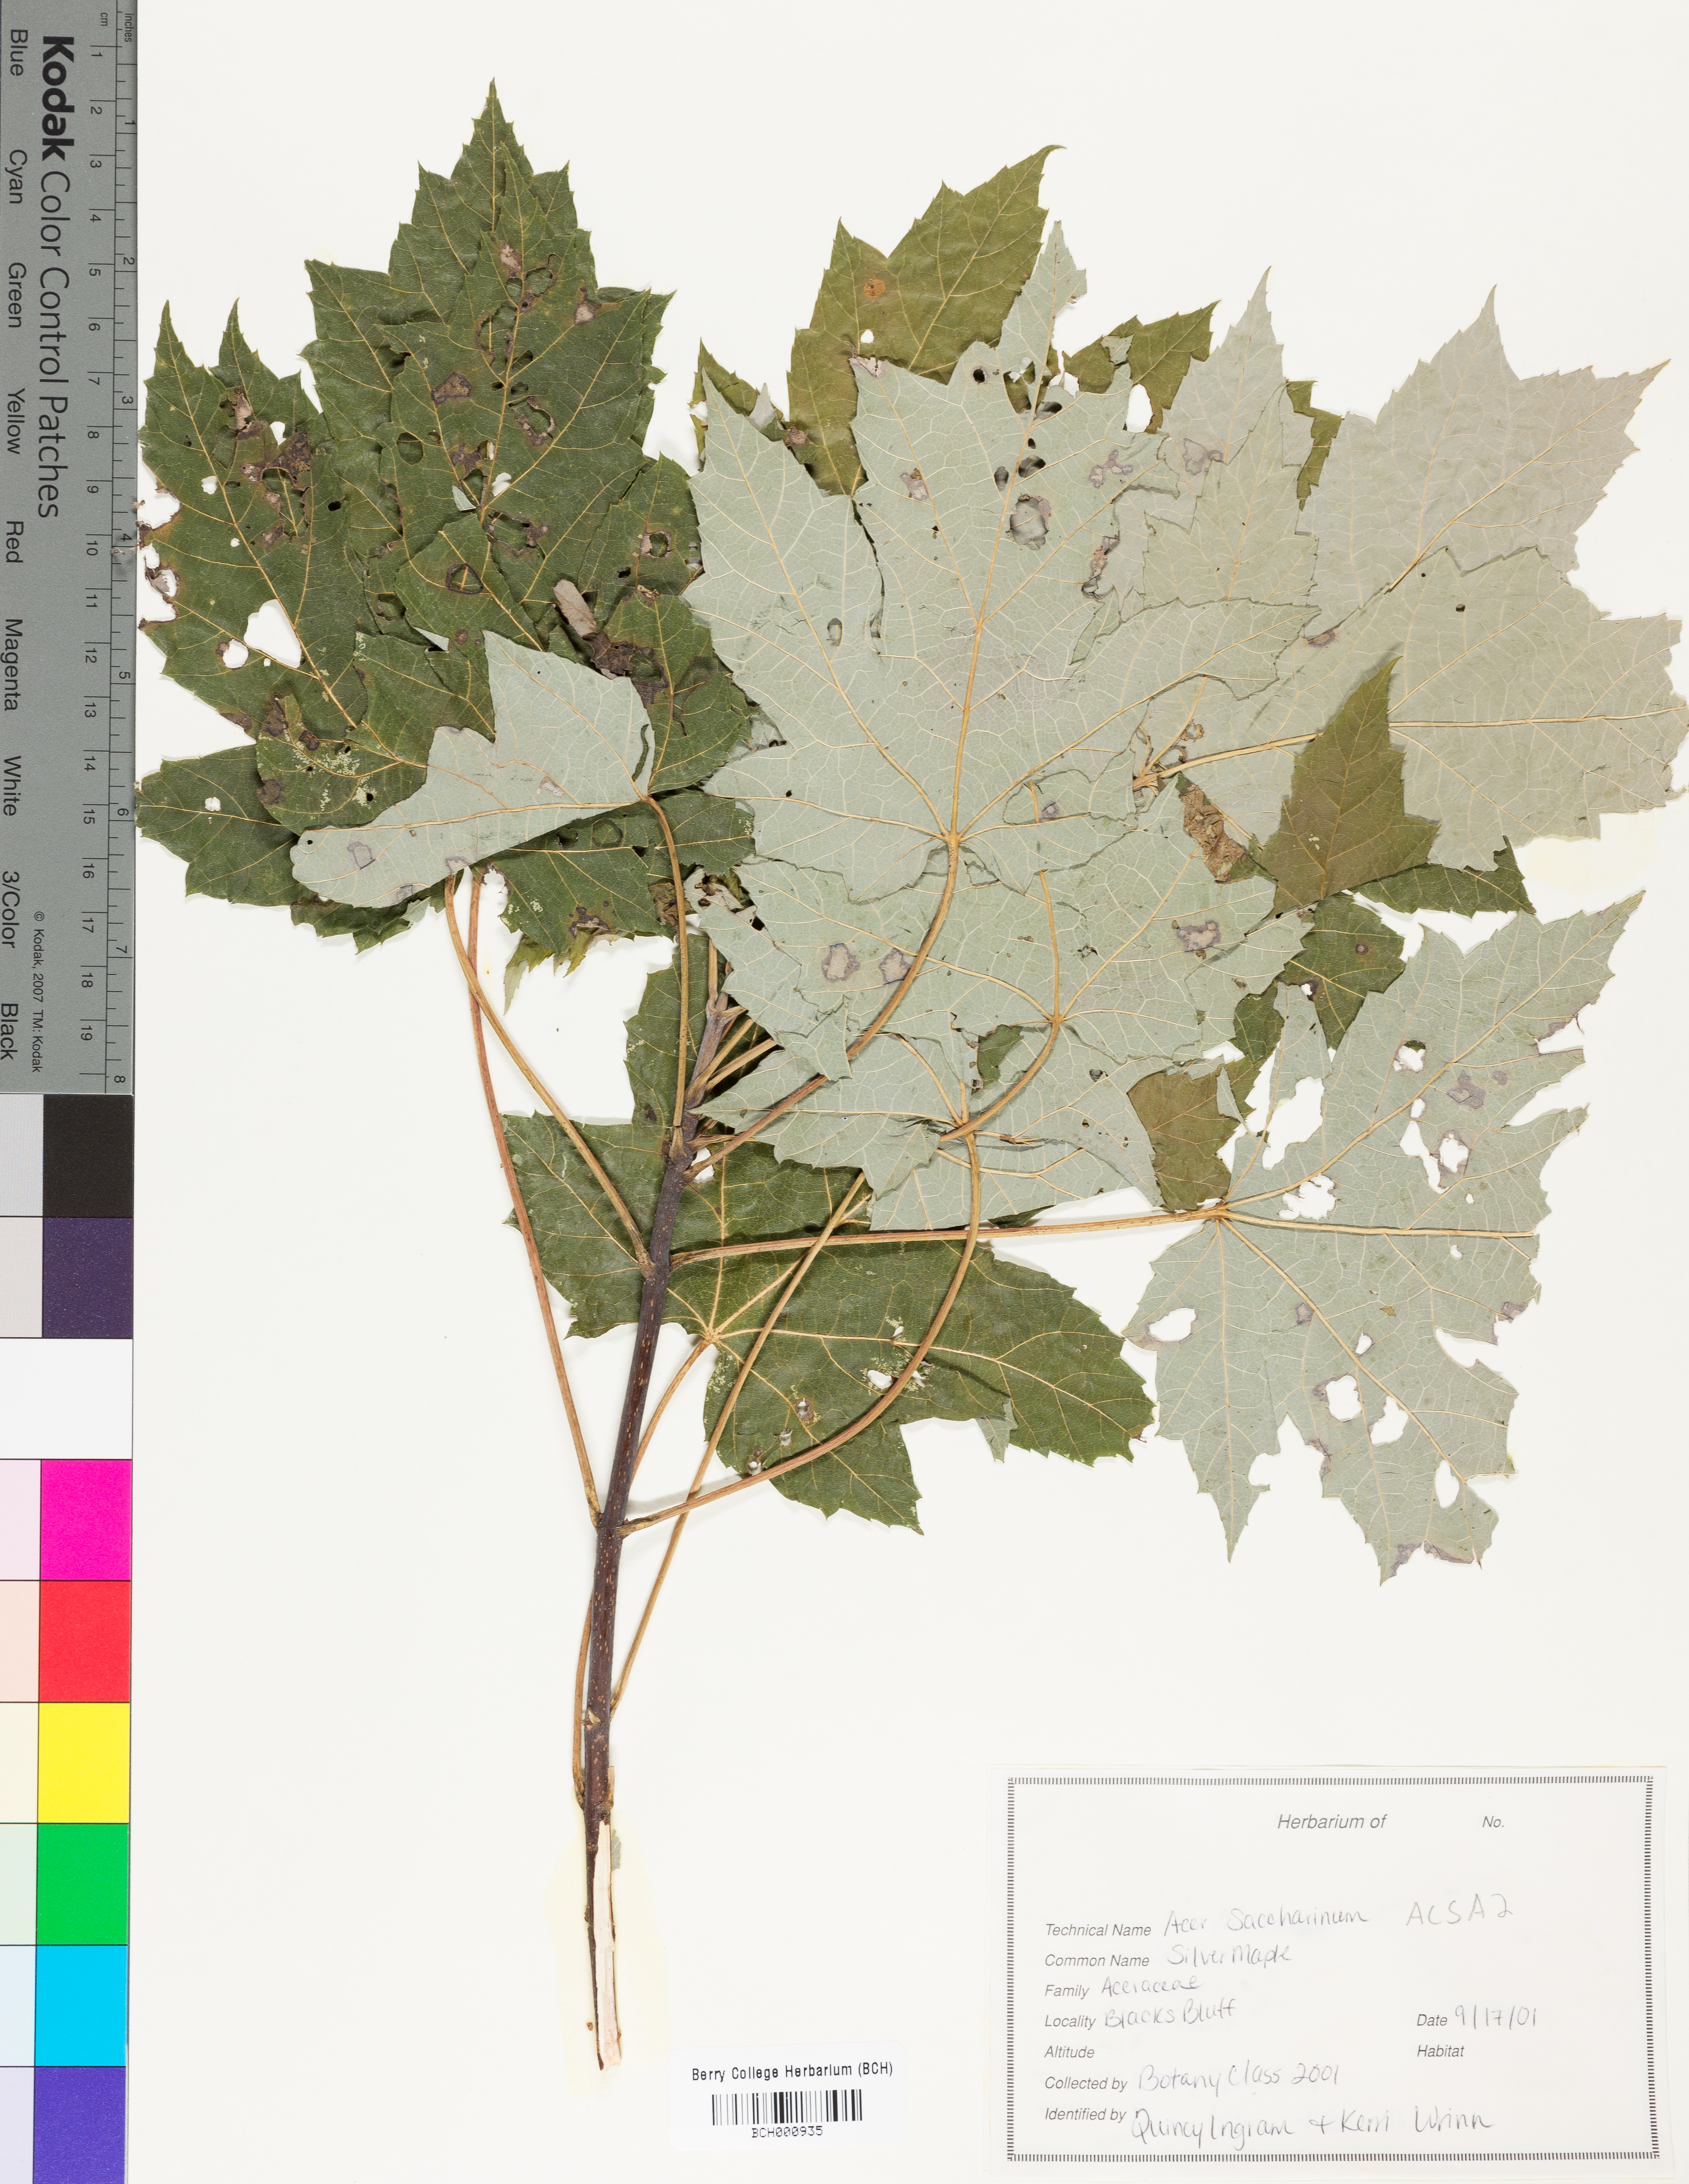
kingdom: Plantae
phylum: Tracheophyta
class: Magnoliopsida
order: Sapindales
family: Sapindaceae
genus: Acer
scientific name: Acer saccharinum
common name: Silver maple
